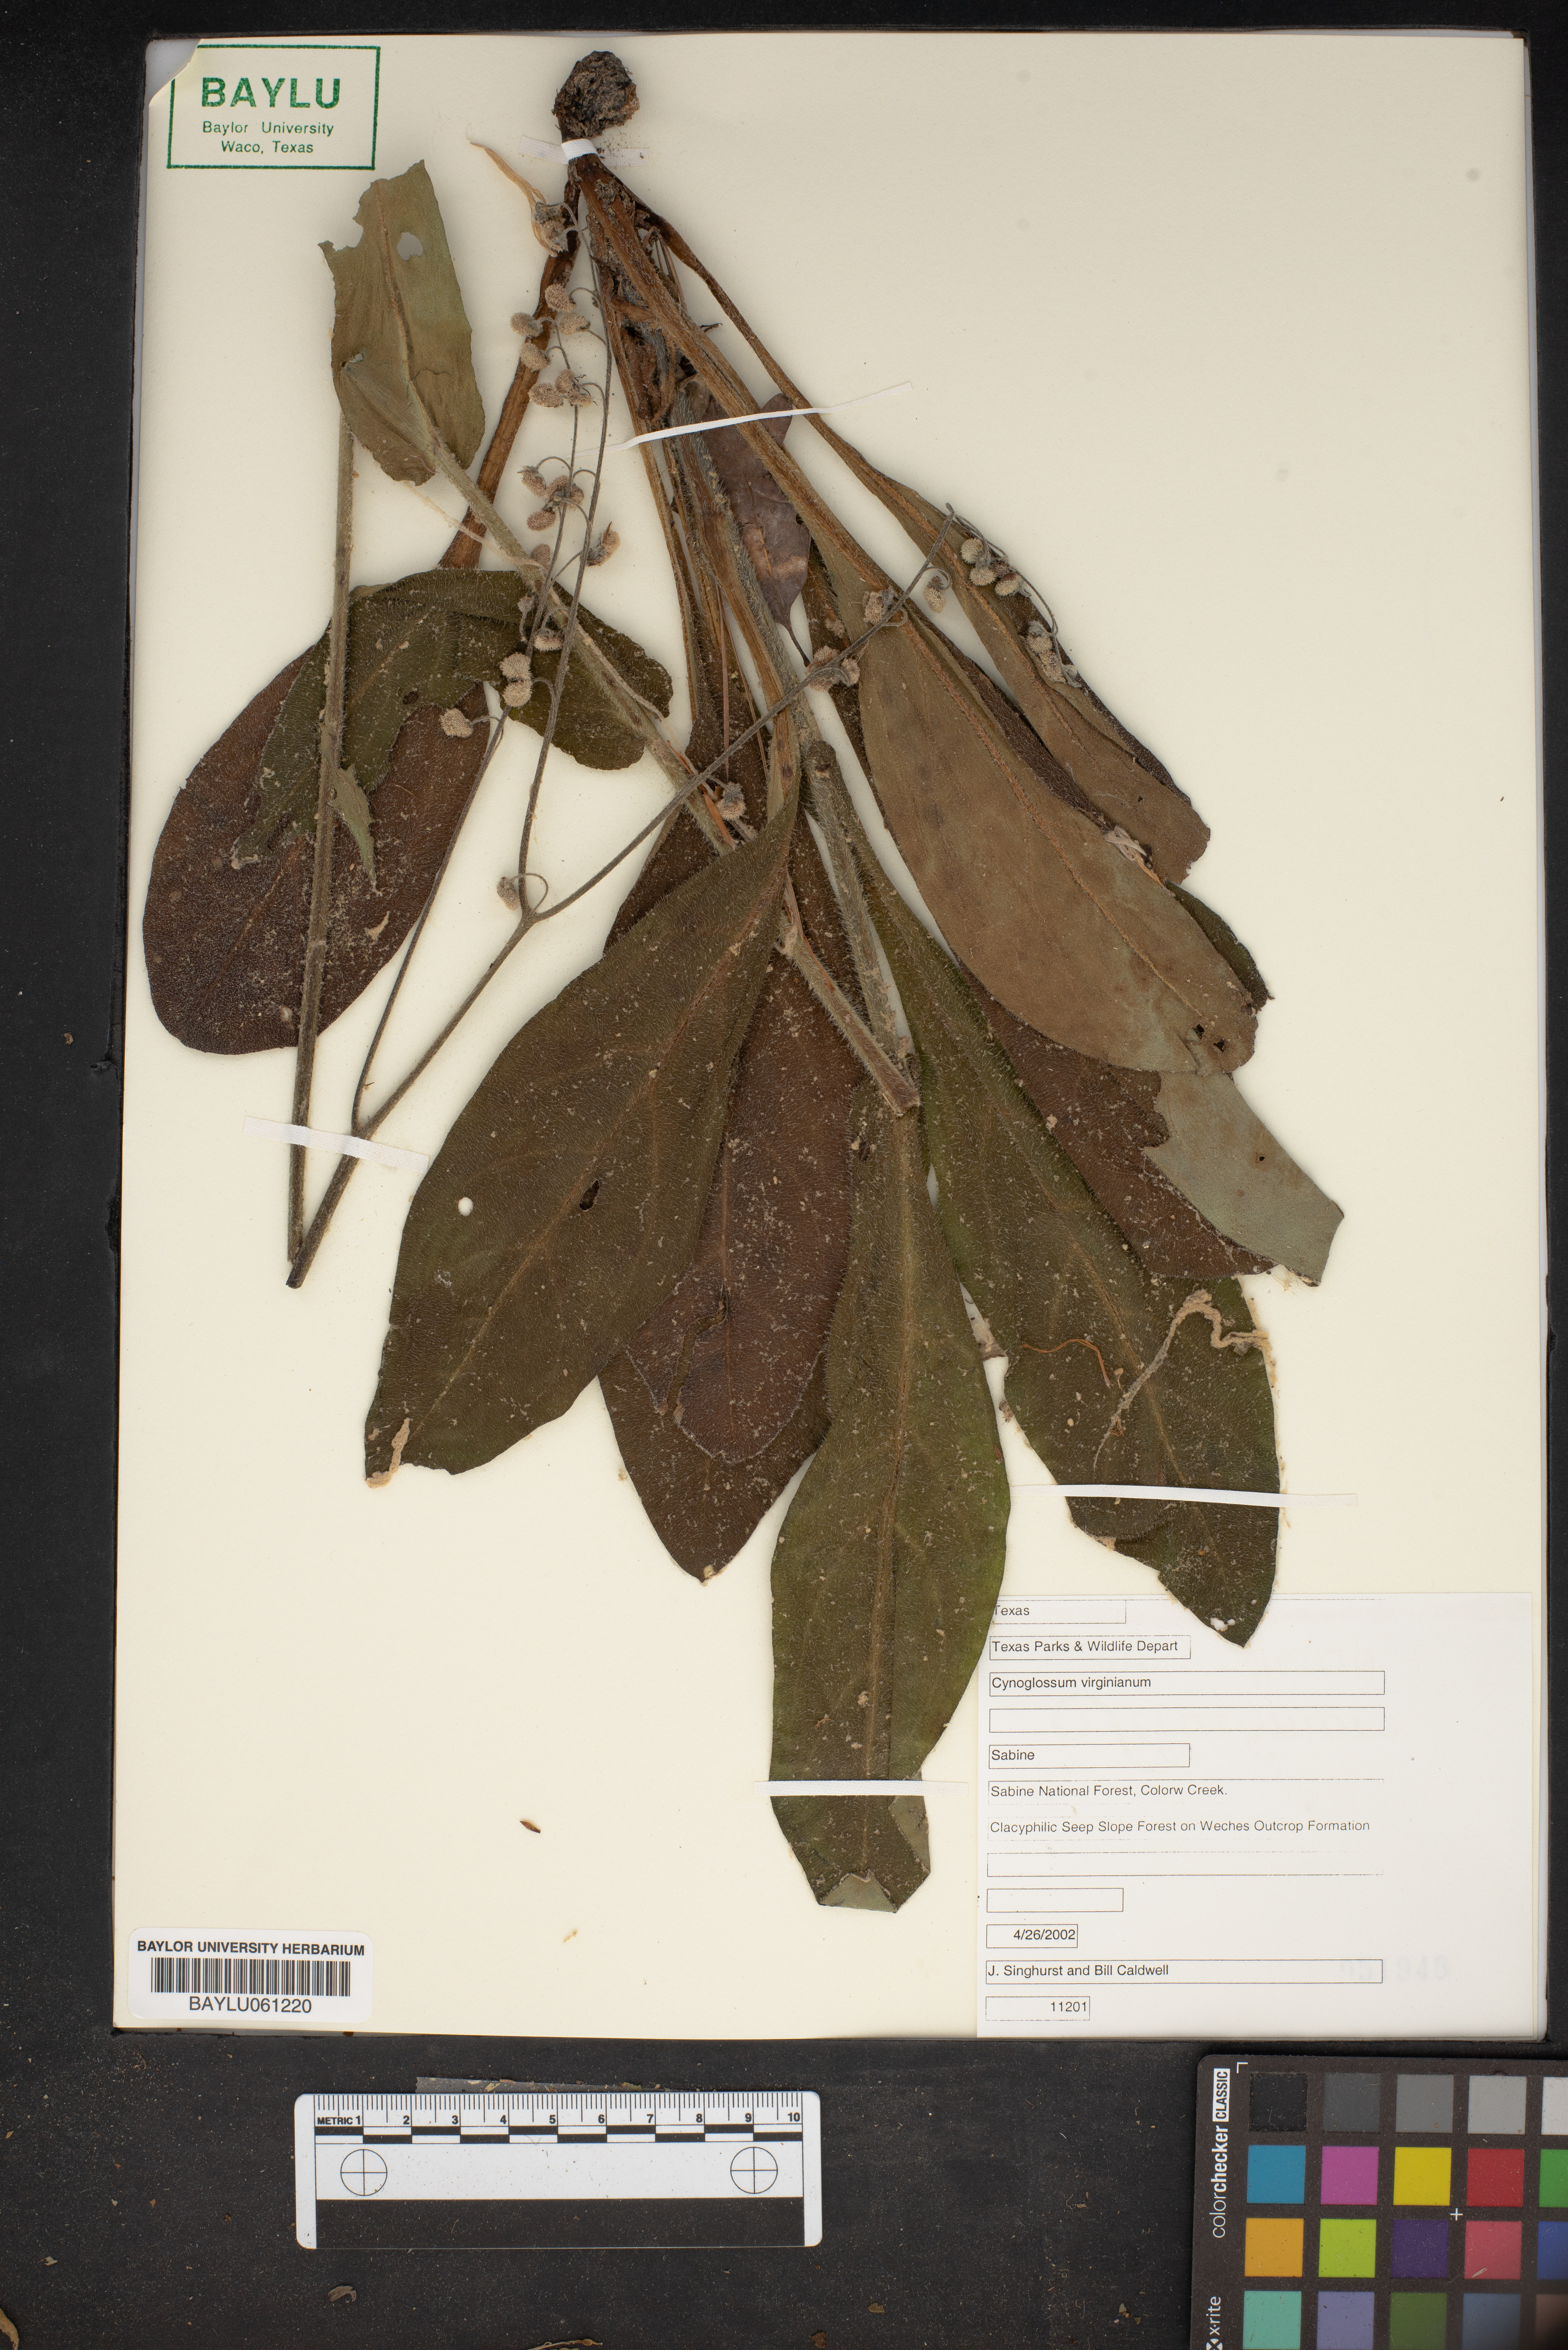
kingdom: Plantae
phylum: Tracheophyta
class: Magnoliopsida
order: Boraginales
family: Boraginaceae
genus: Andersonglossum
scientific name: Andersonglossum virginianum
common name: Wild comfrey
